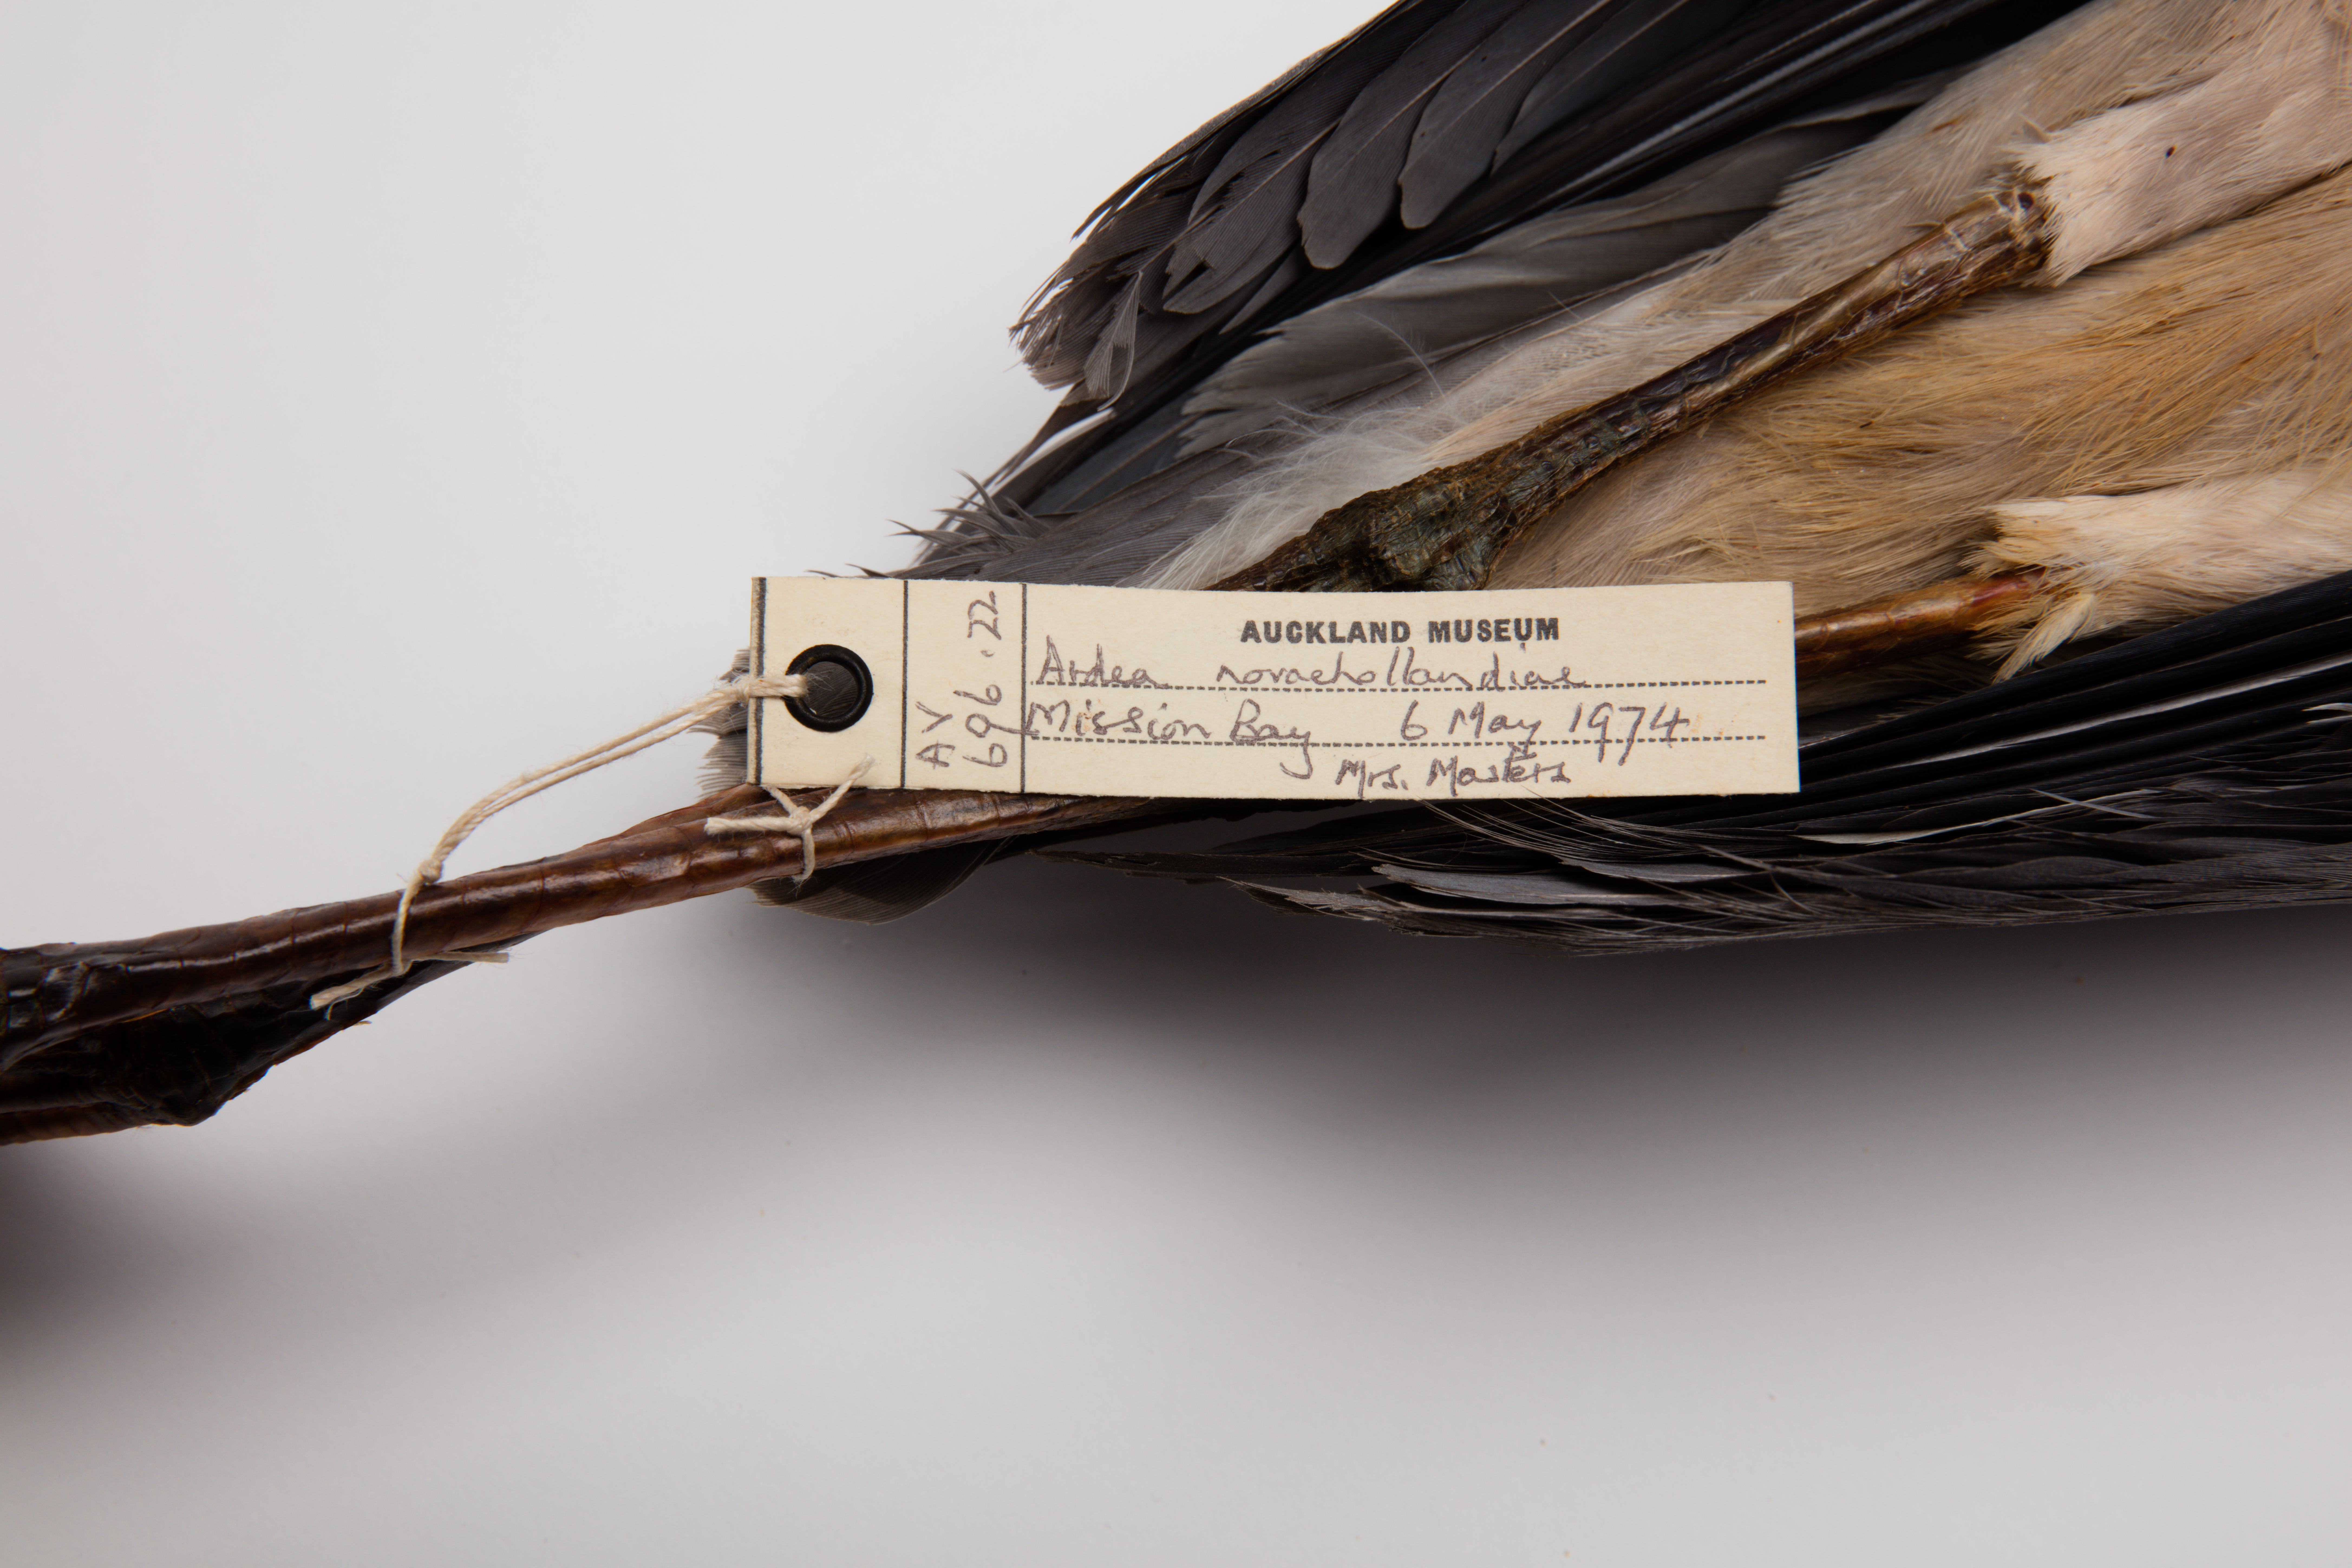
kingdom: Animalia
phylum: Chordata
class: Aves
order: Pelecaniformes
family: Ardeidae
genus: Egretta
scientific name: Egretta novaehollandiae
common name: White-faced heron
